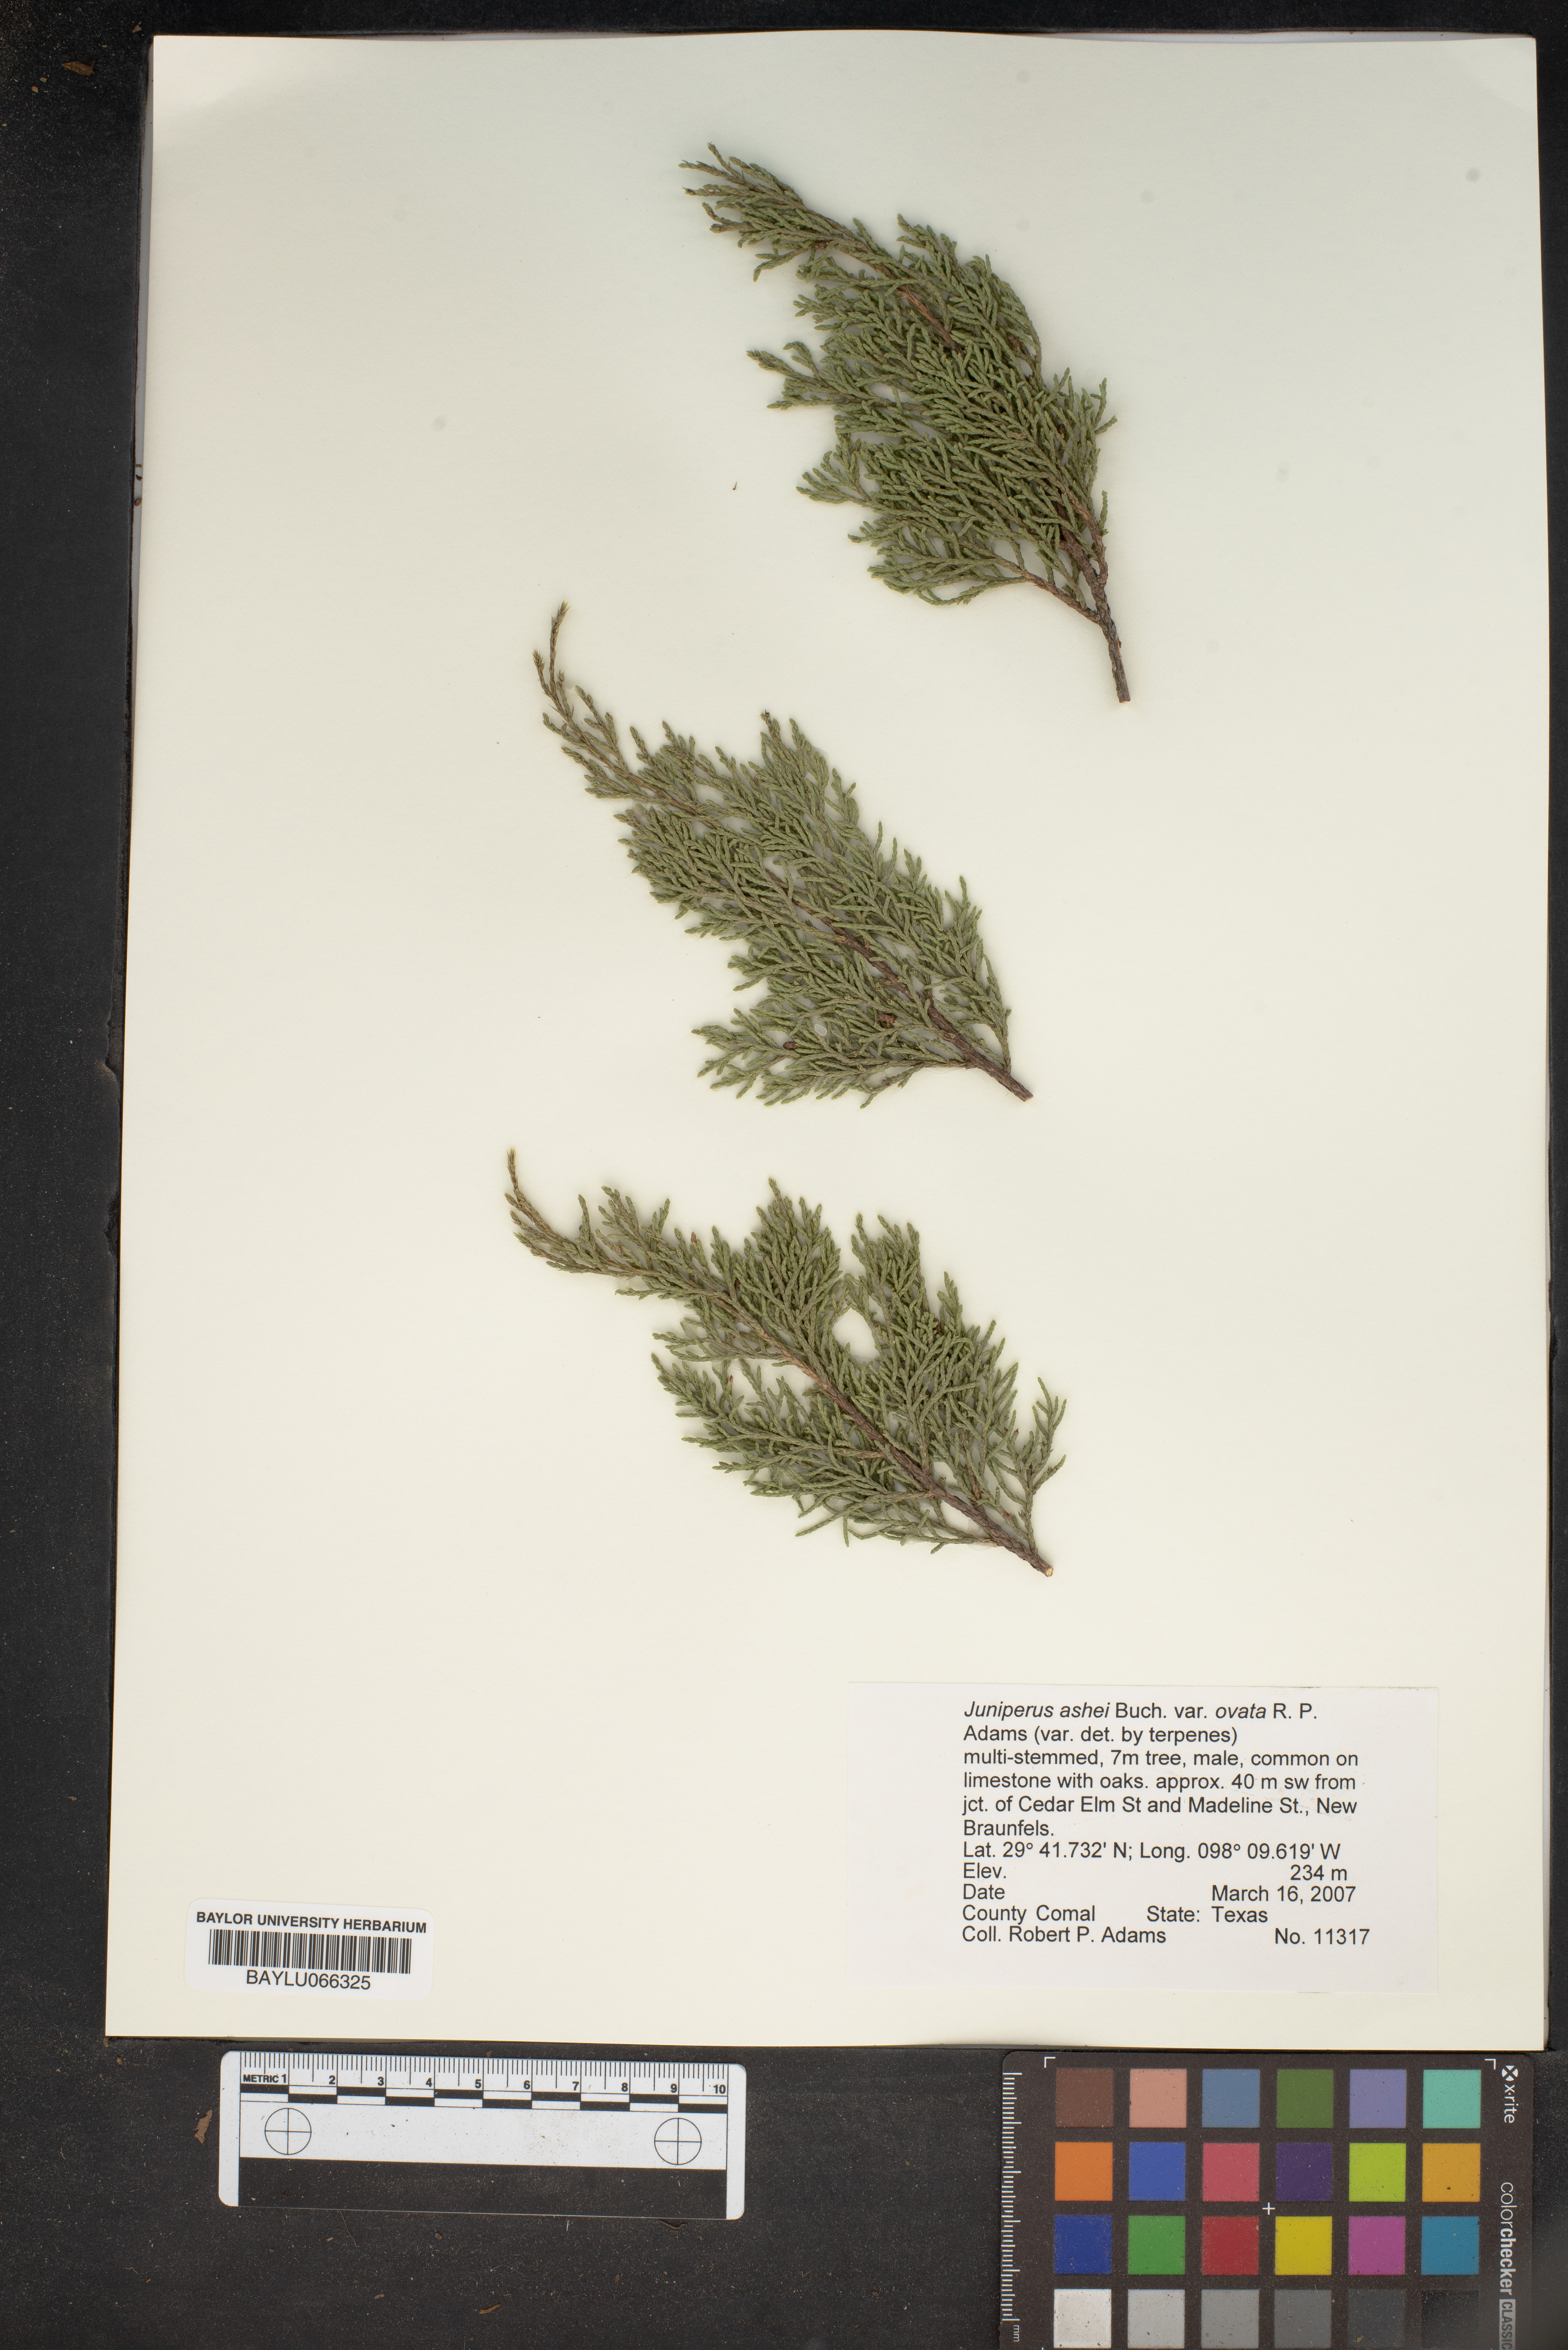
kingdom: Plantae
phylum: Tracheophyta
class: Pinopsida
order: Pinales
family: Cupressaceae
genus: Juniperus
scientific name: Juniperus ashei
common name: Mexican juniper
